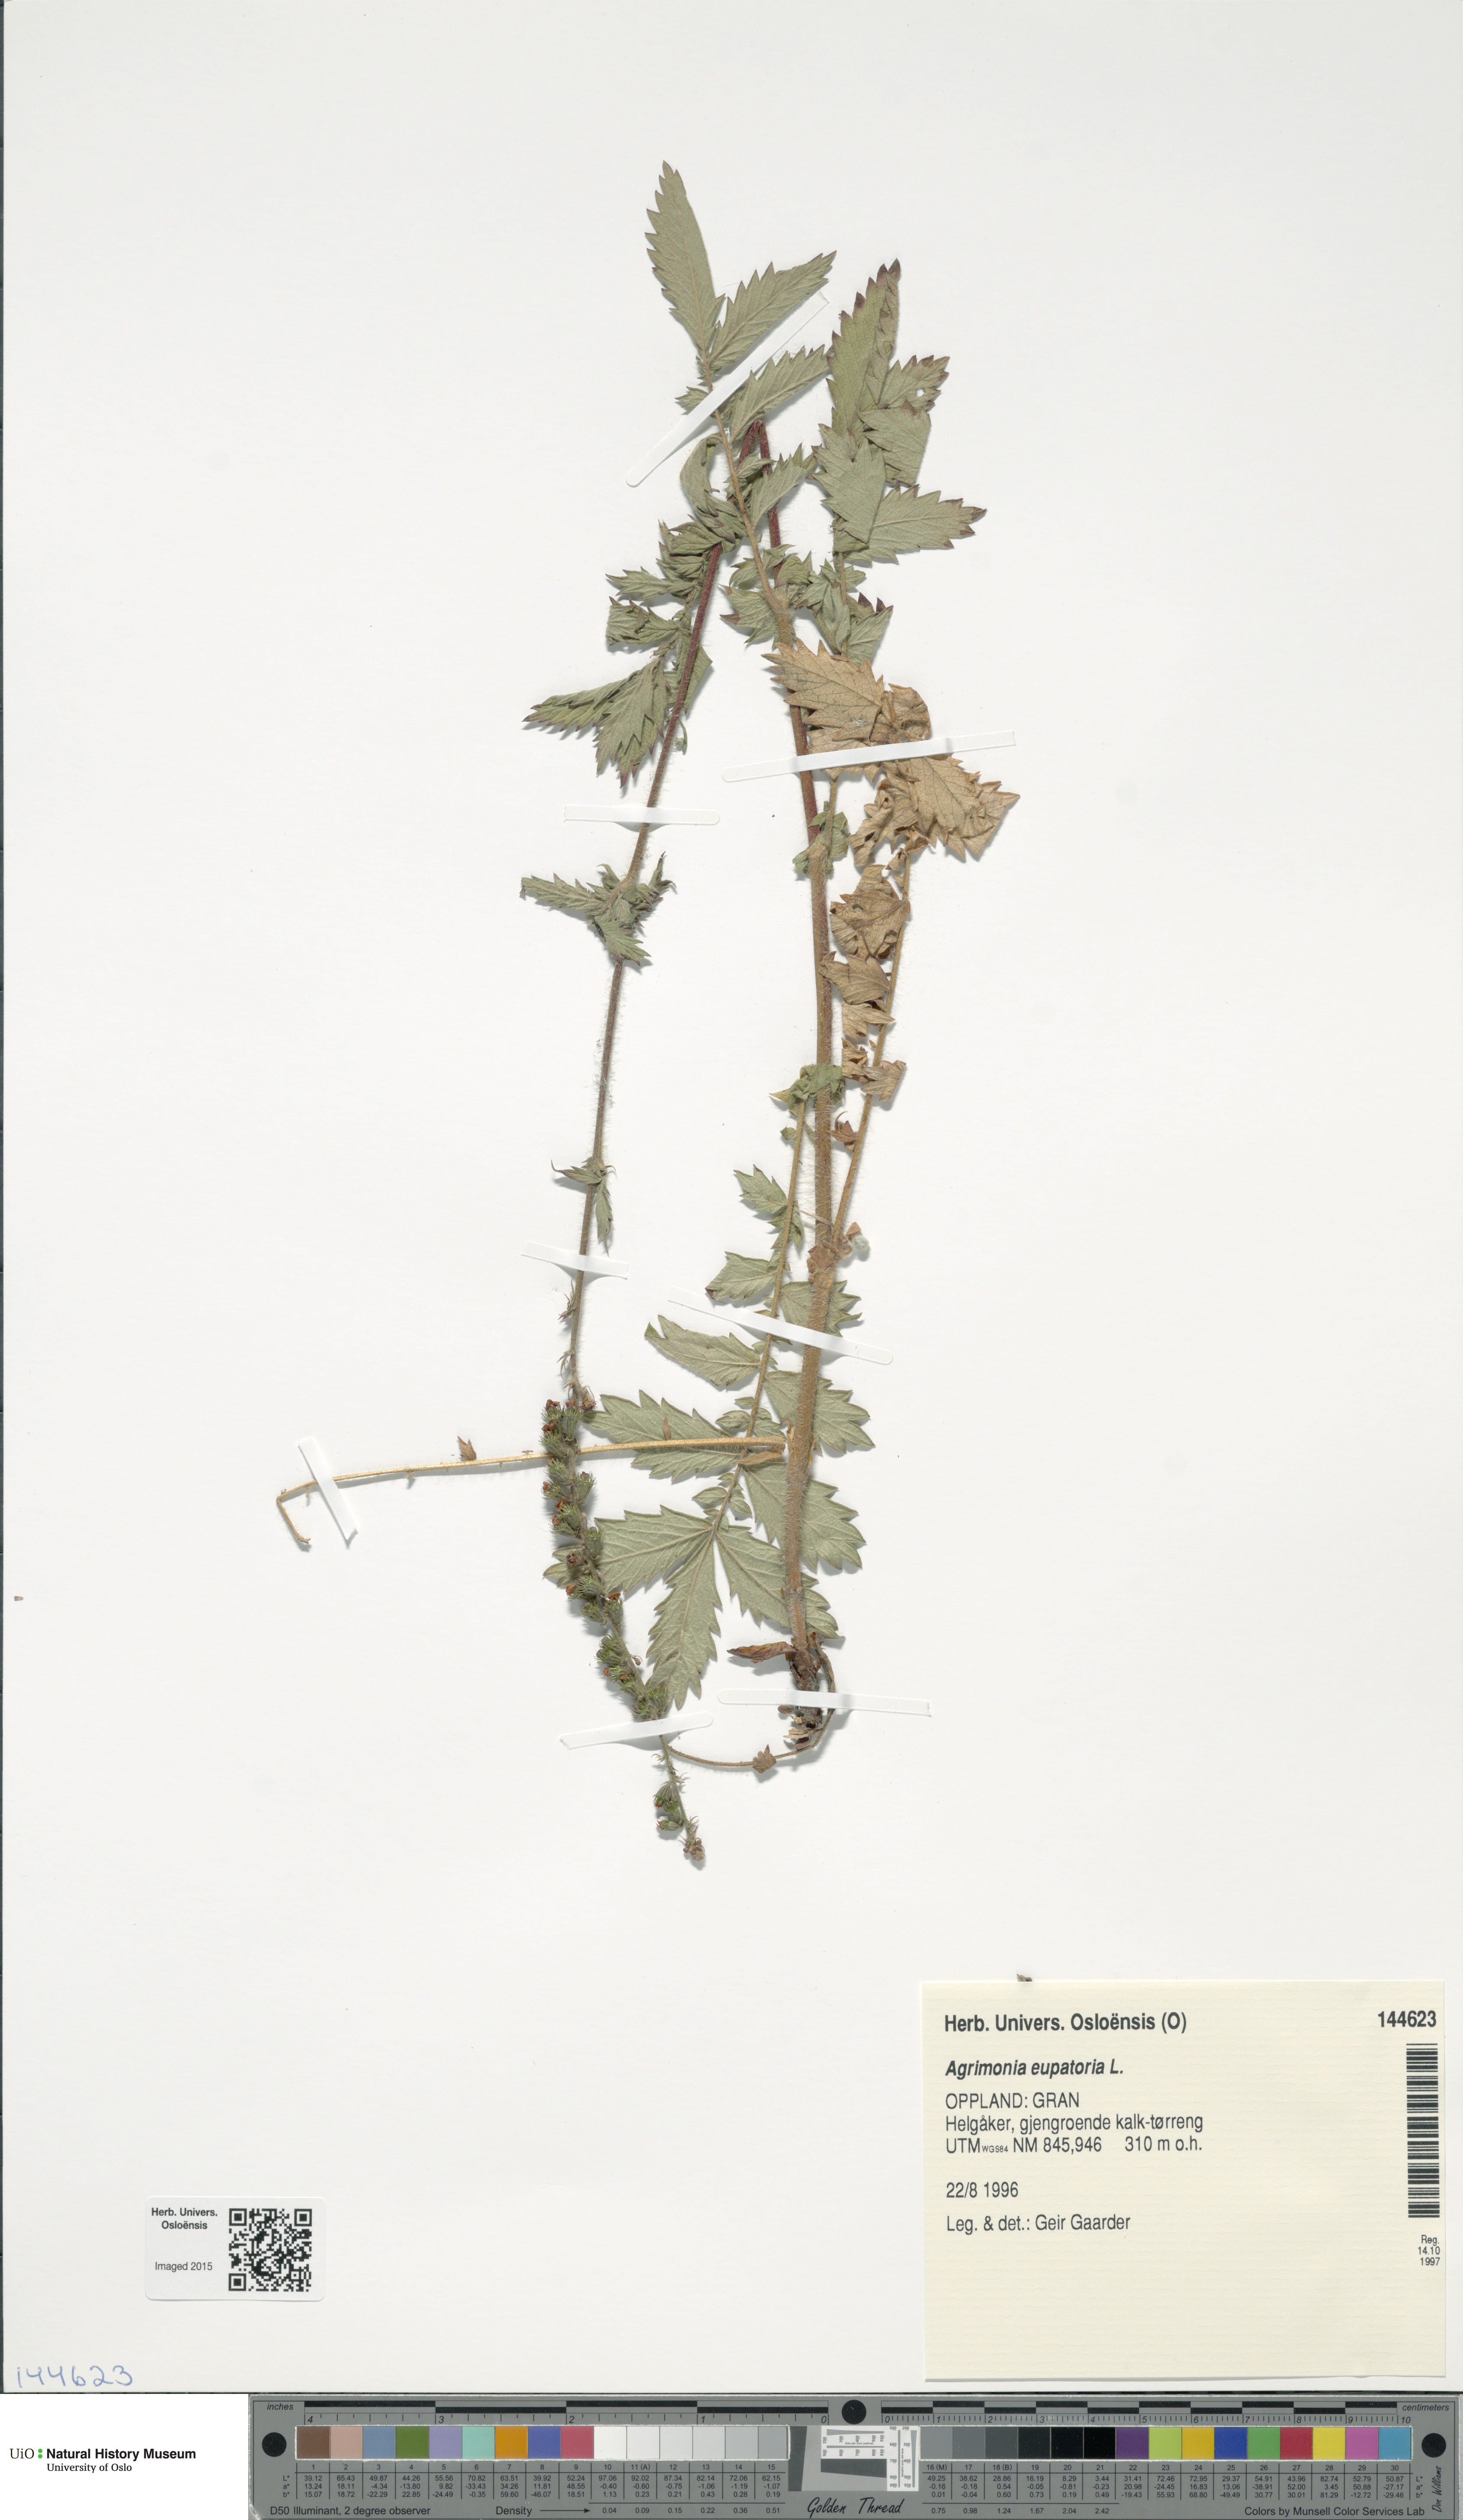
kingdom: Plantae
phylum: Tracheophyta
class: Magnoliopsida
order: Rosales
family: Rosaceae
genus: Agrimonia
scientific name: Agrimonia eupatoria
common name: Agrimony
